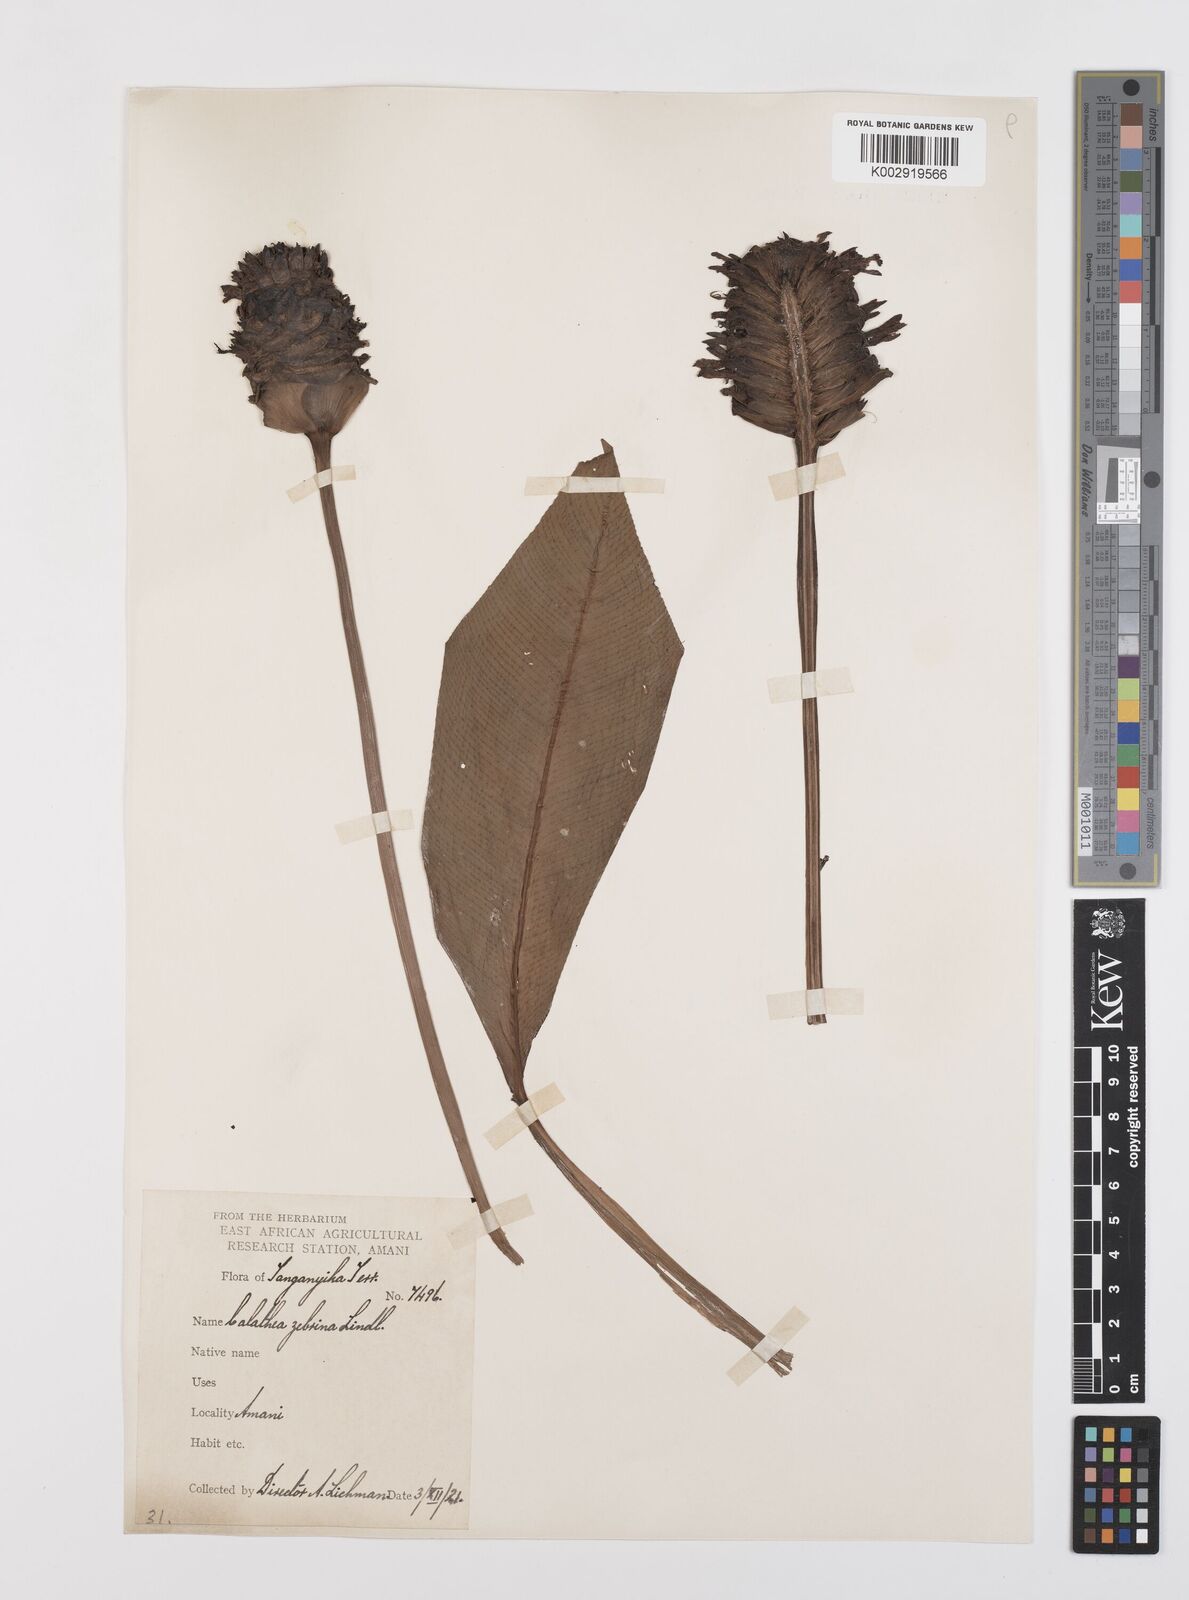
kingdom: Plantae
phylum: Tracheophyta
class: Liliopsida
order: Zingiberales
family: Marantaceae
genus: Goeppertia
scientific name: Goeppertia zebrina
